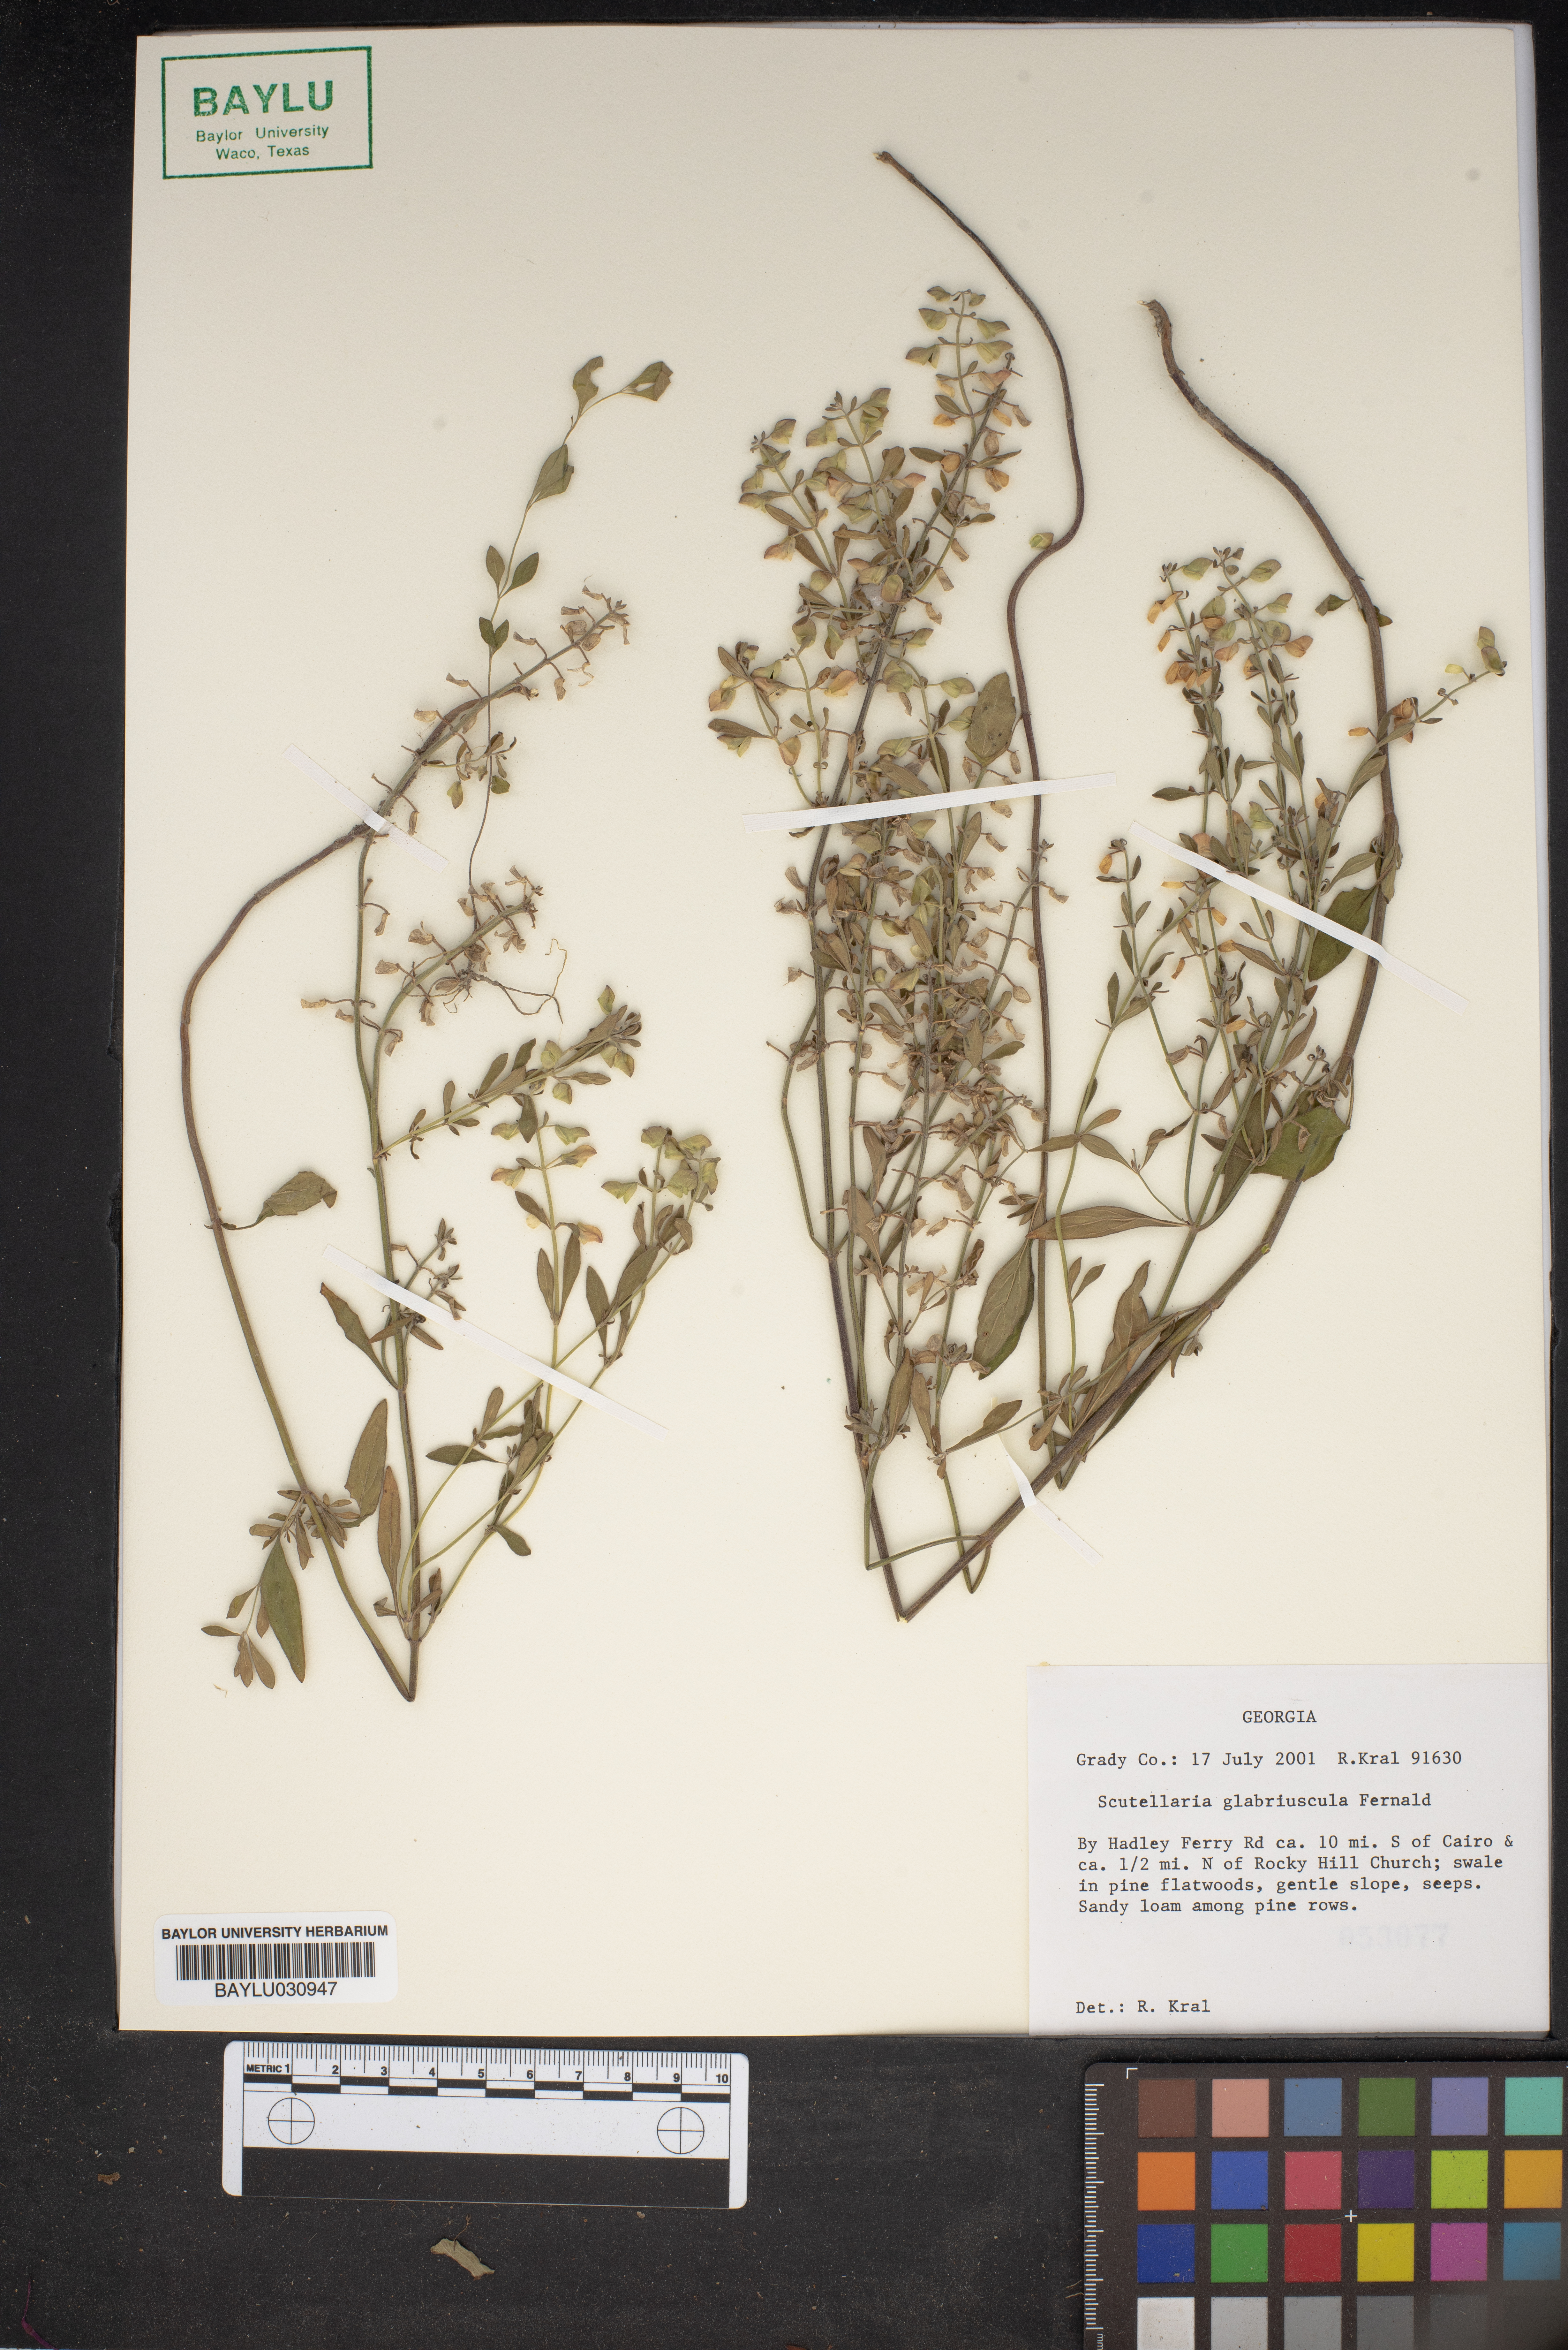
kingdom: Plantae
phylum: Tracheophyta
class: Magnoliopsida
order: Lamiales
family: Lamiaceae
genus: Scutellaria
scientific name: Scutellaria glabriuscula
